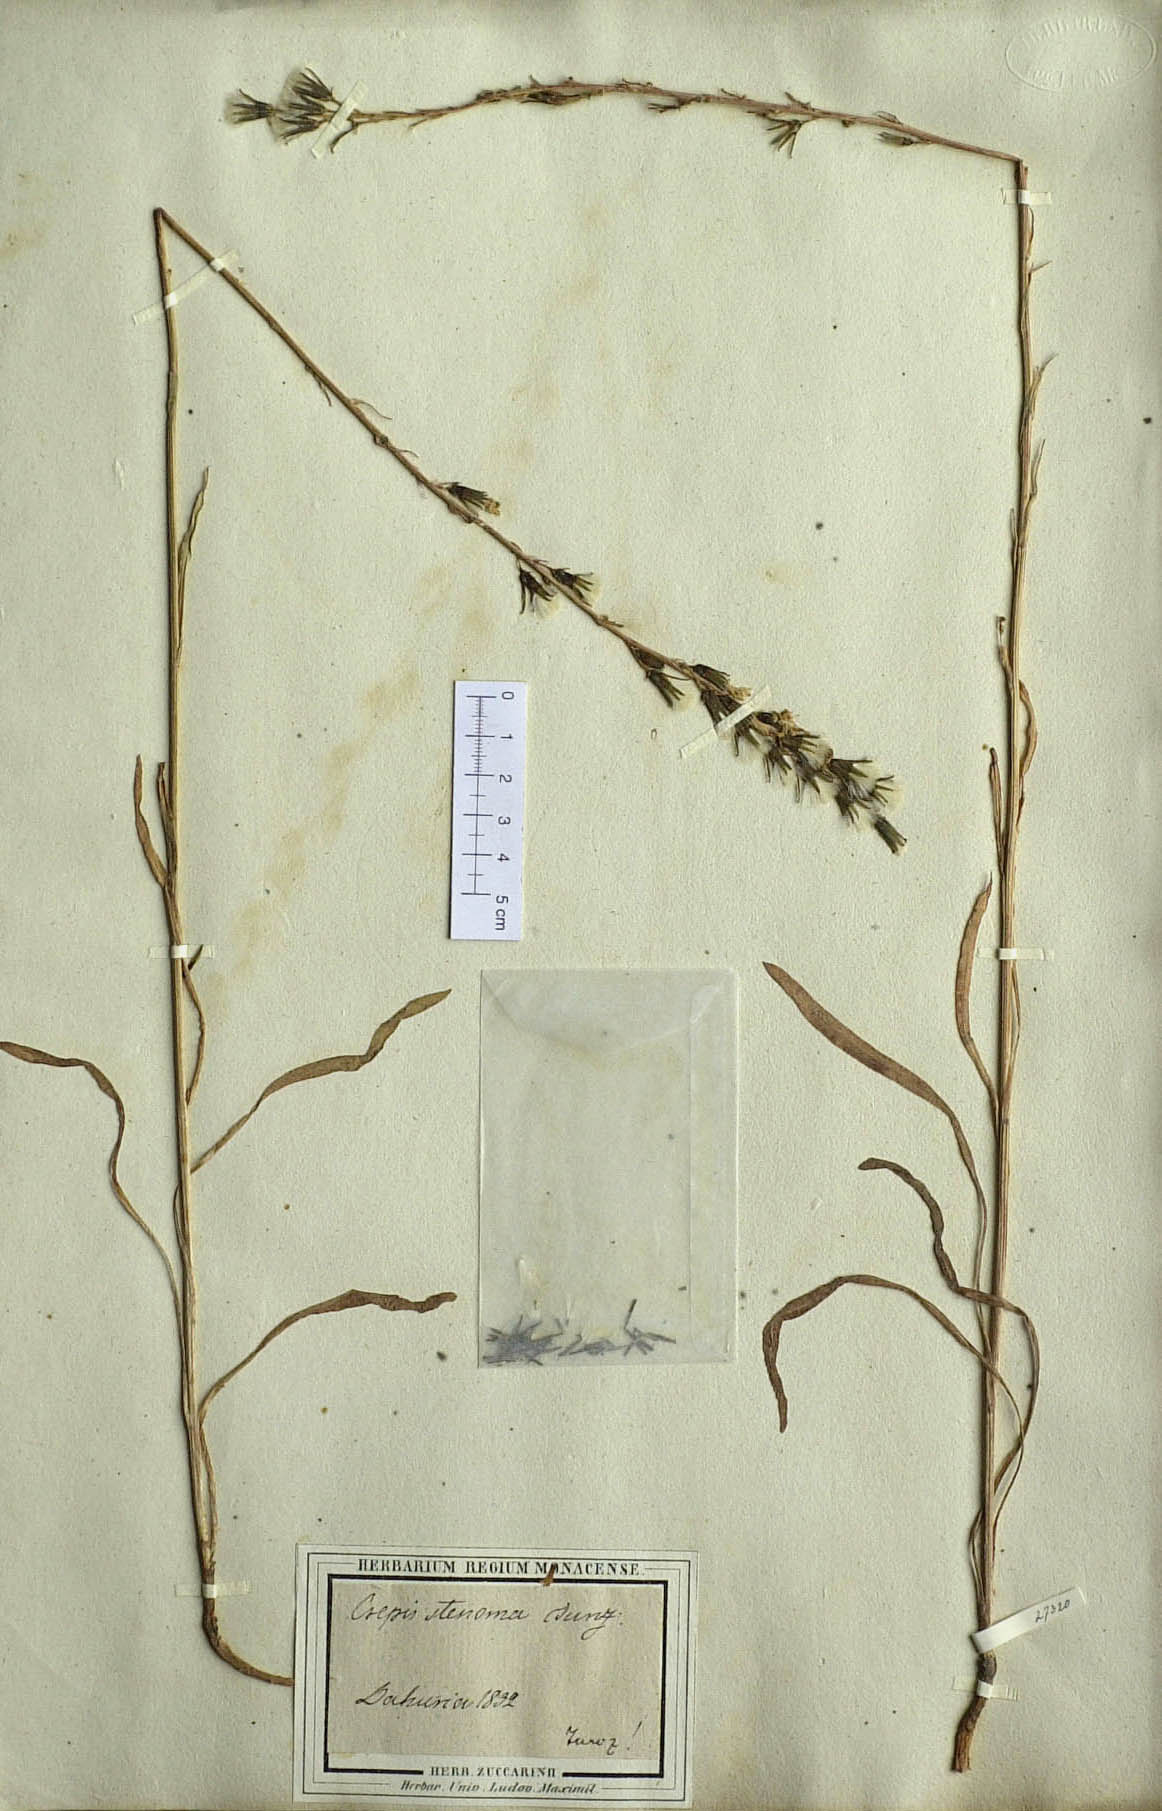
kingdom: Plantae
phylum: Tracheophyta
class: Magnoliopsida
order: Asterales
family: Asteraceae
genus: Sonchella
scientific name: Sonchella stenoma
